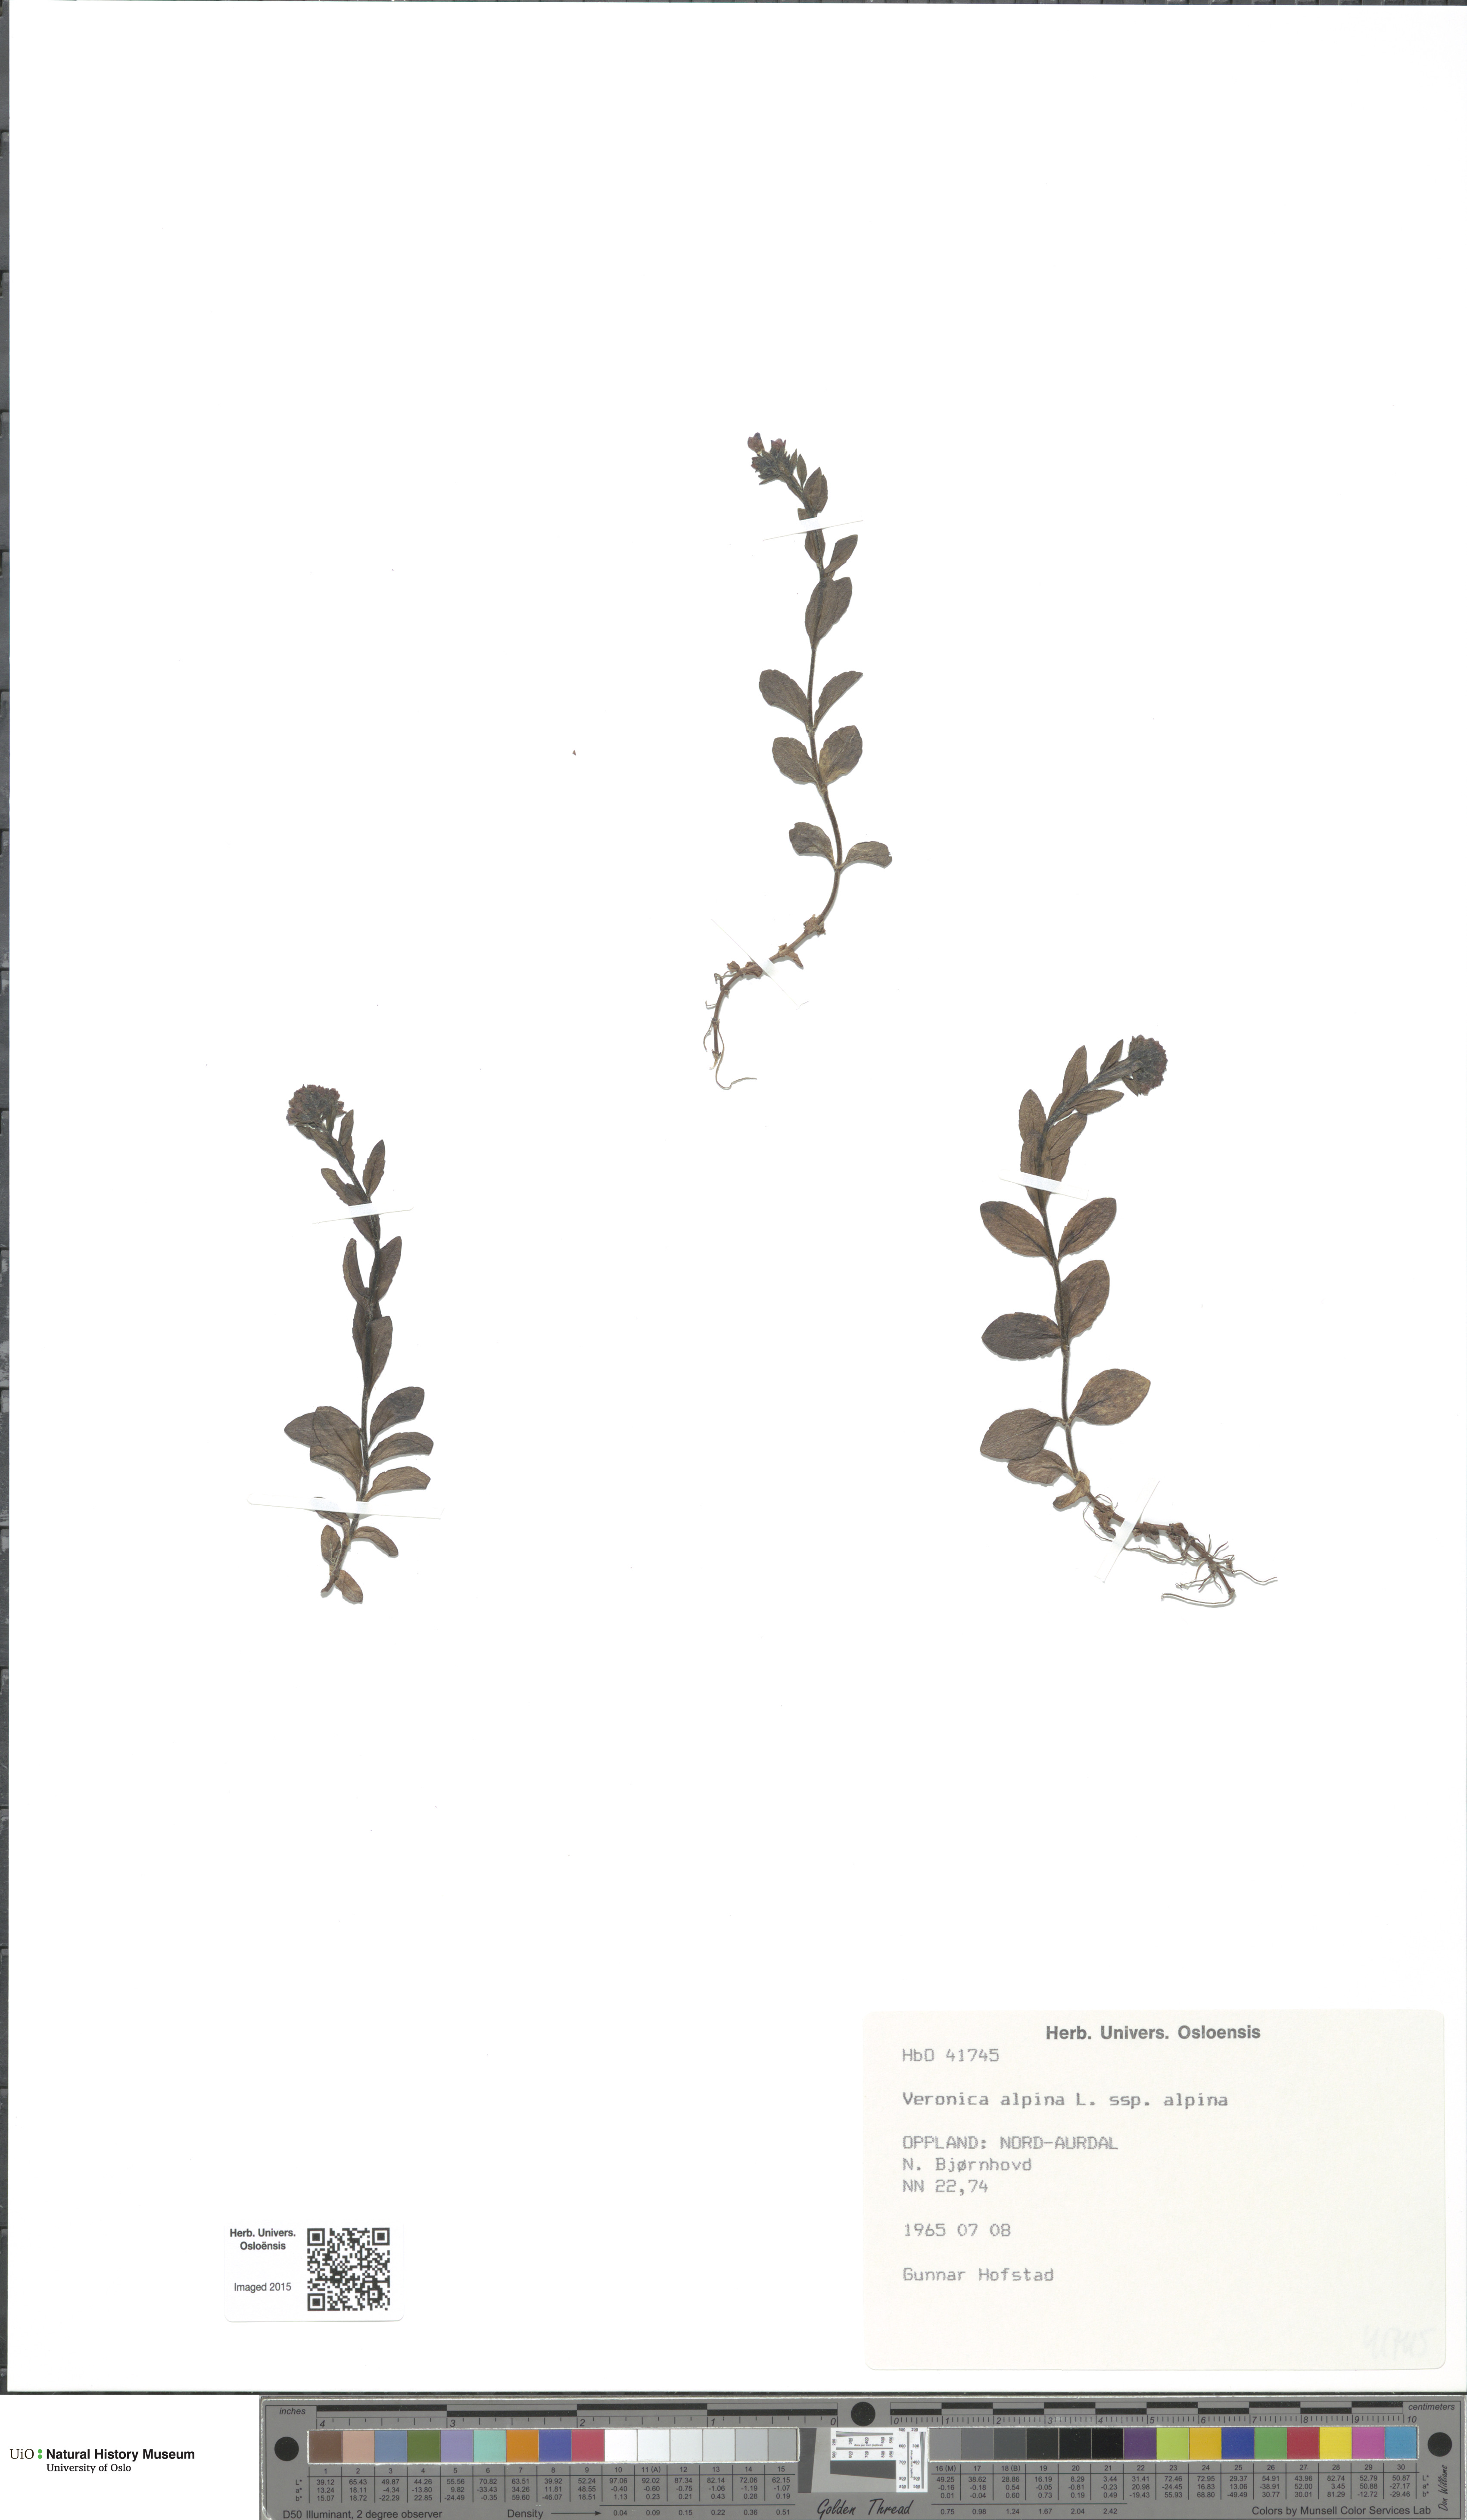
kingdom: Plantae
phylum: Tracheophyta
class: Magnoliopsida
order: Lamiales
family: Plantaginaceae
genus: Veronica
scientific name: Veronica alpina
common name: Alpine speedwell
